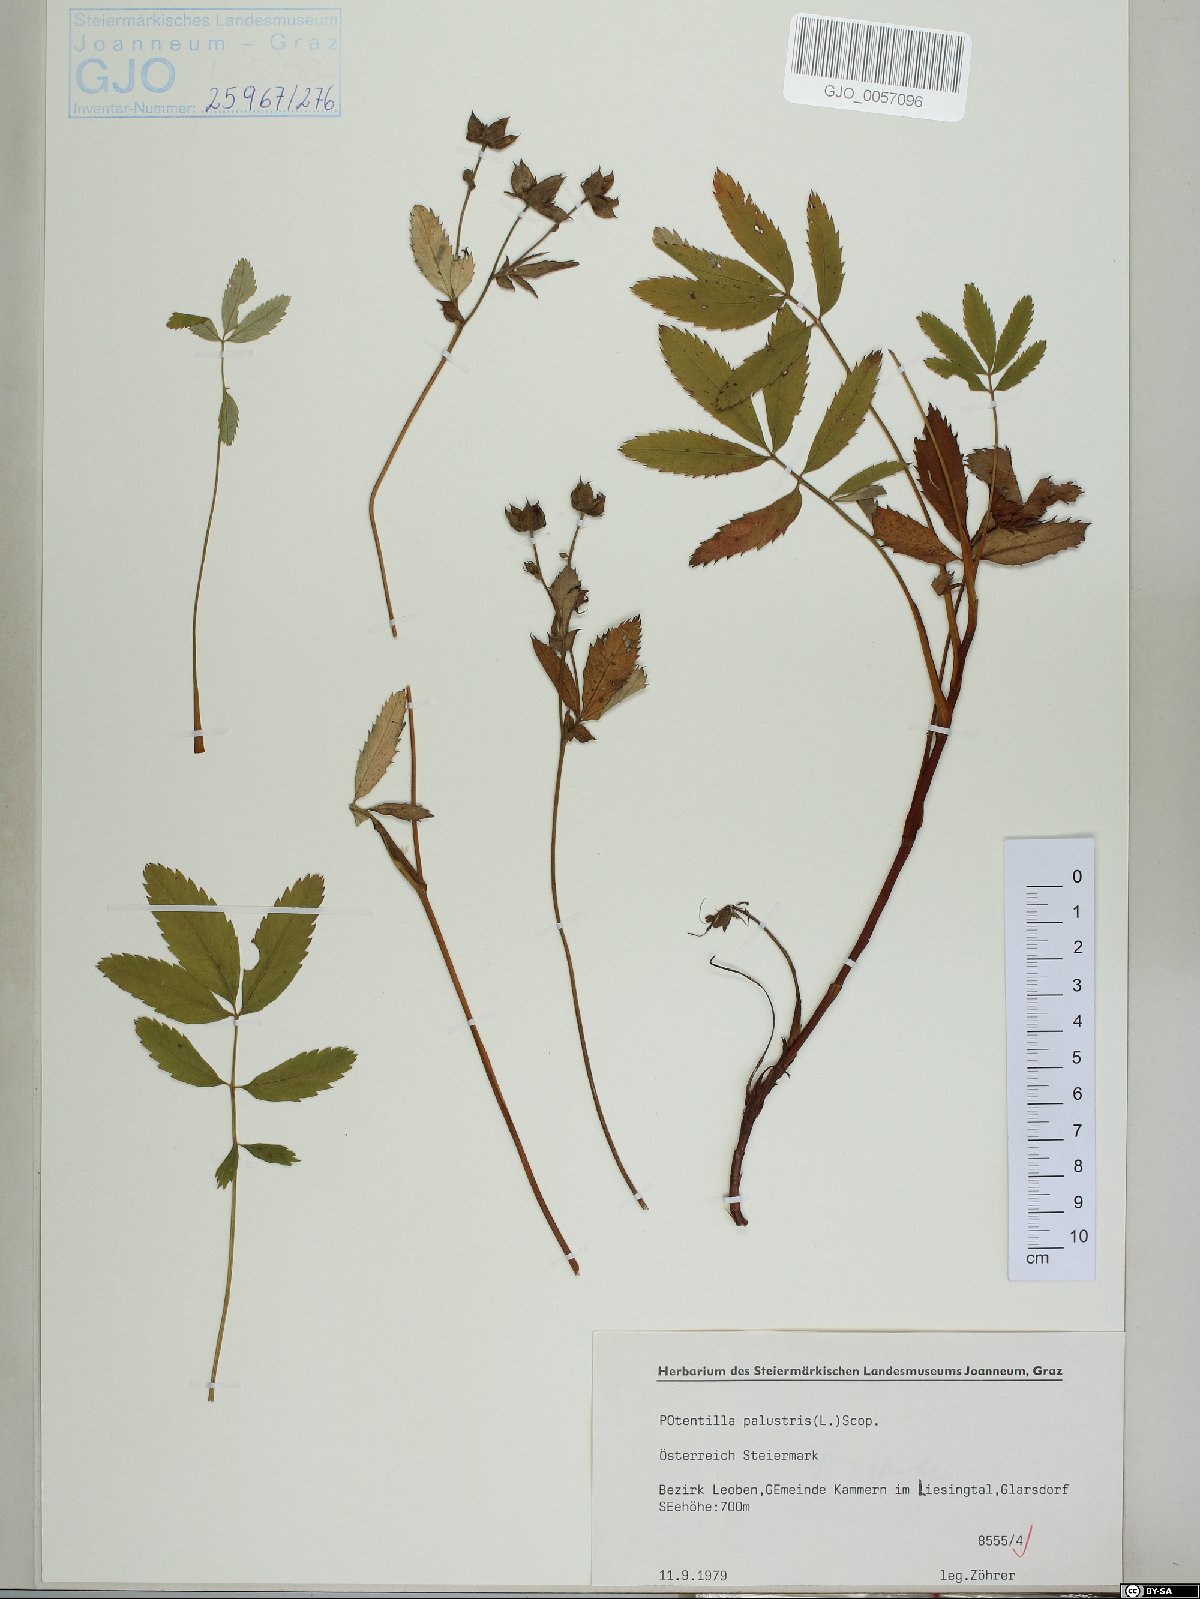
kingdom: Plantae
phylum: Tracheophyta
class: Magnoliopsida
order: Rosales
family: Rosaceae
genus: Comarum
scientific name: Comarum palustre
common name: Marsh cinquefoil
